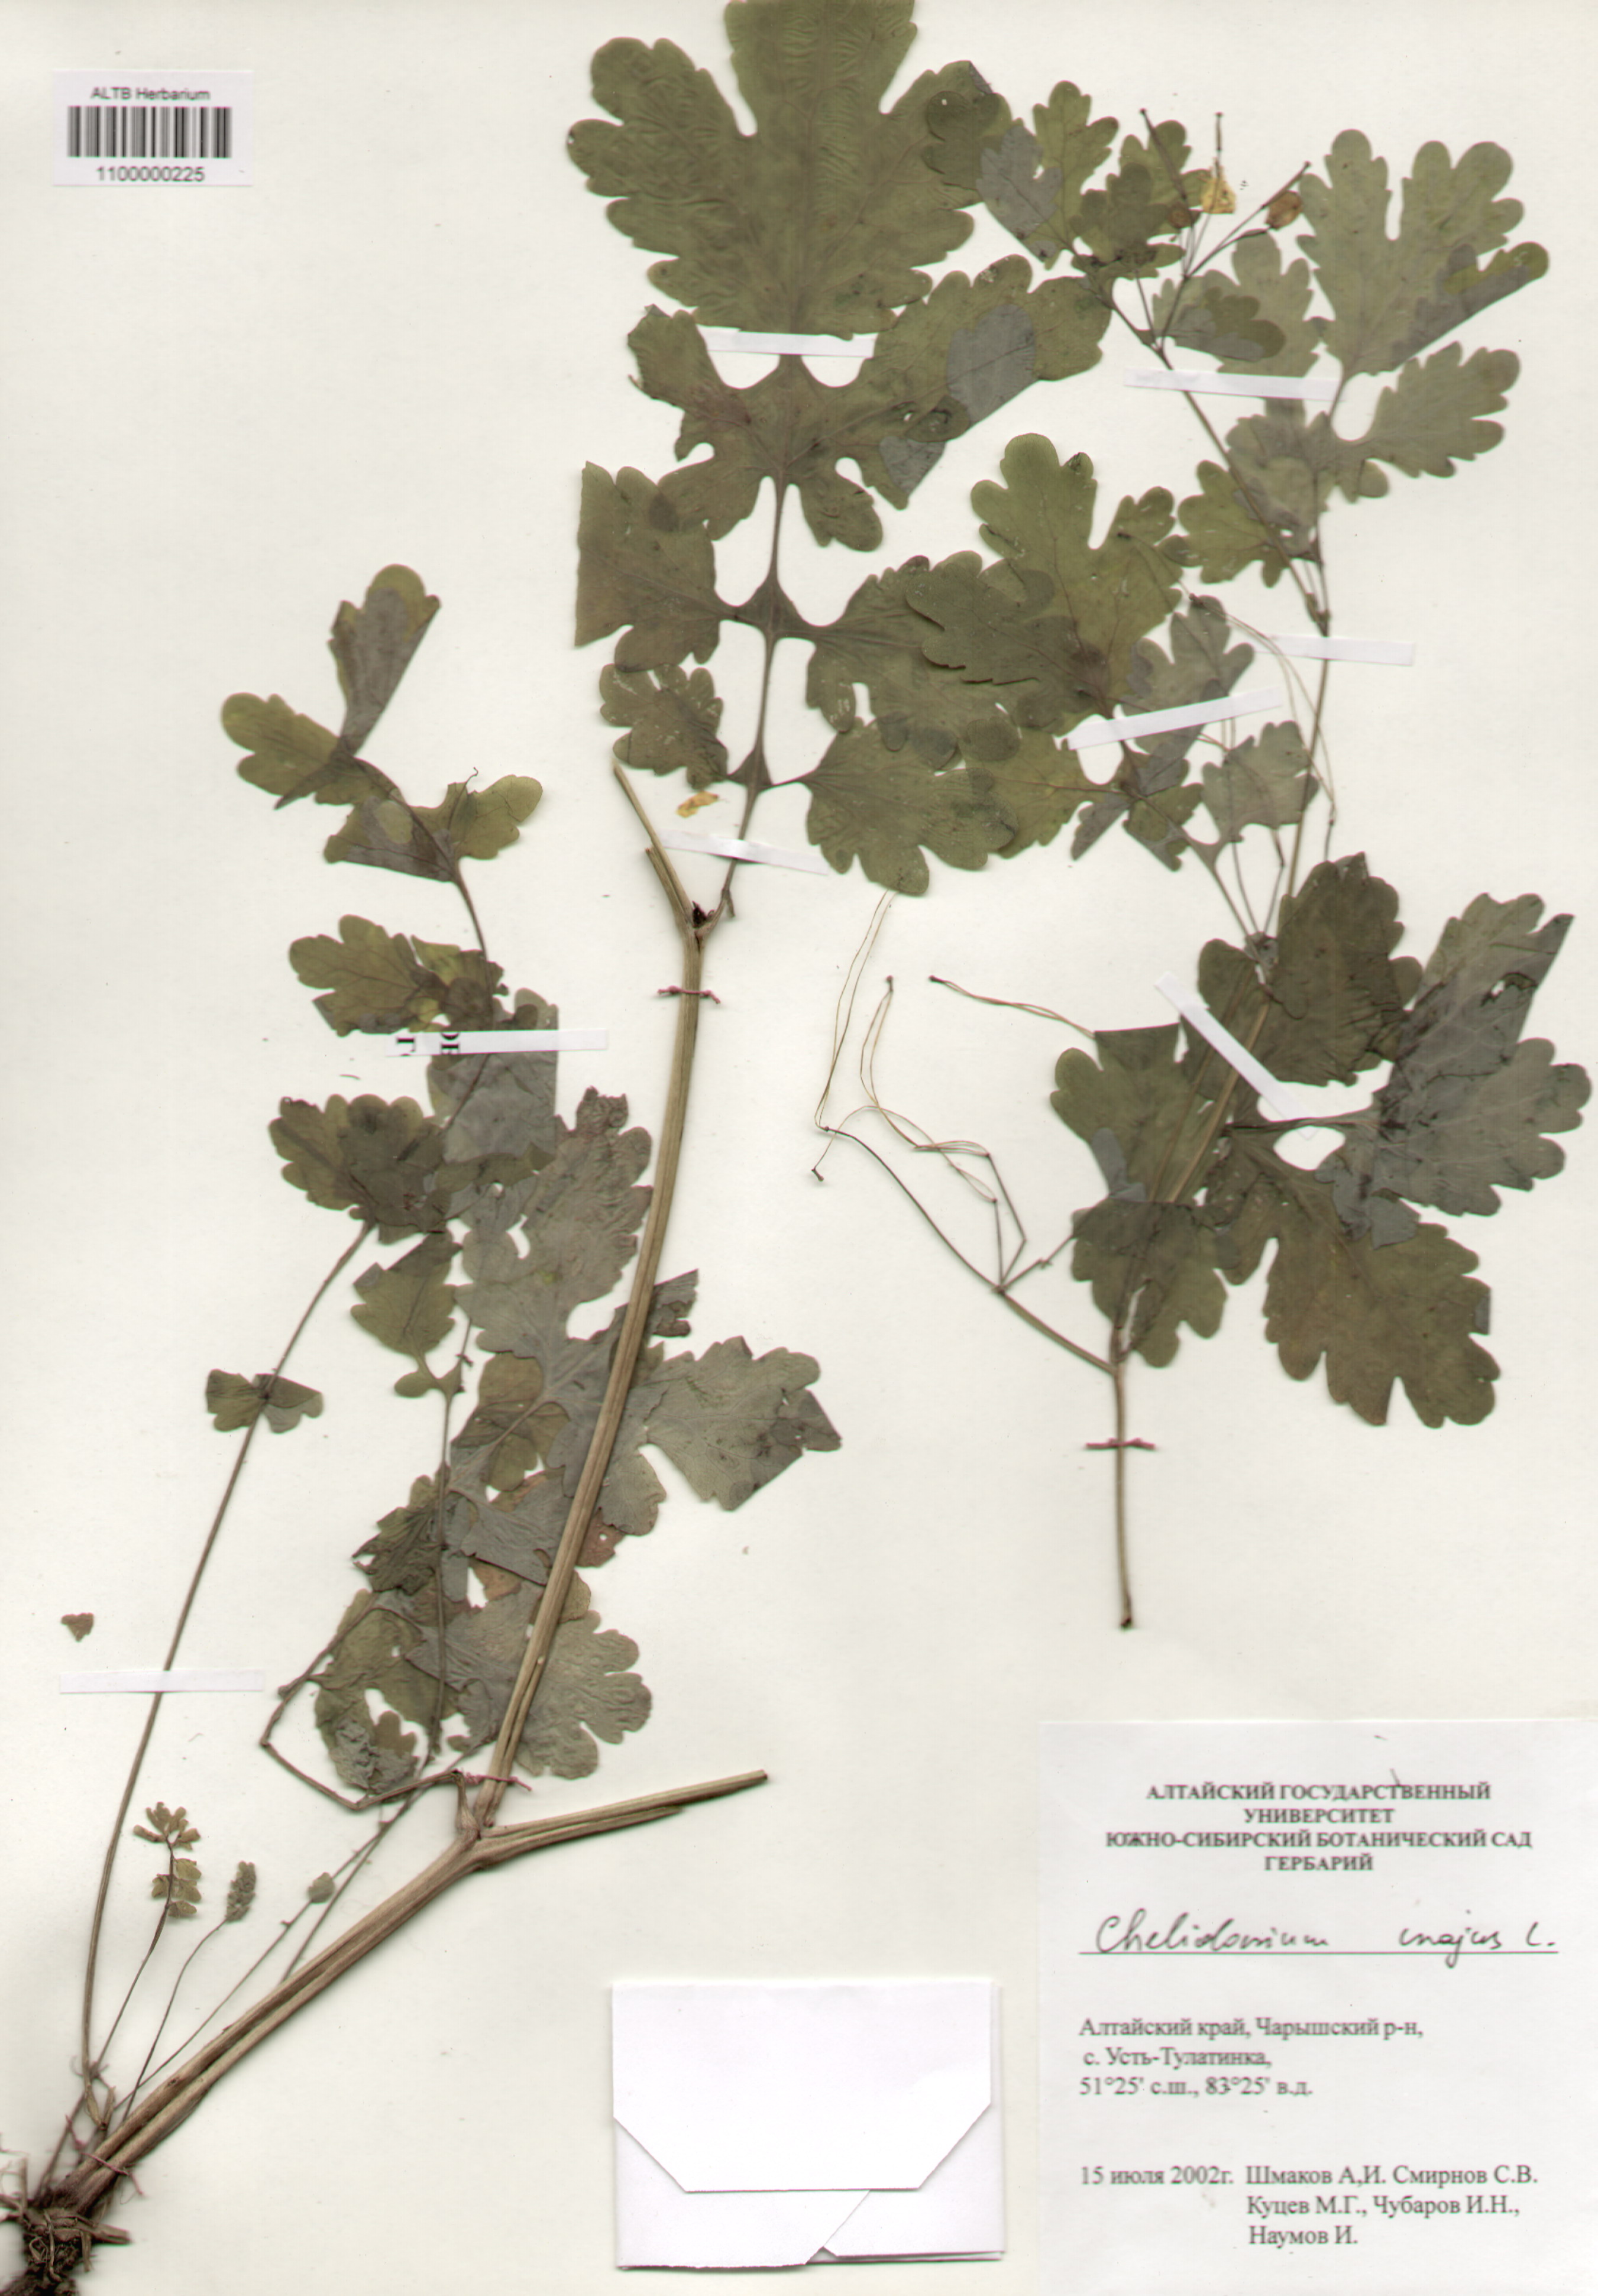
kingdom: Plantae
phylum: Tracheophyta
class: Magnoliopsida
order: Ranunculales
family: Papaveraceae
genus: Chelidonium
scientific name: Chelidonium majus
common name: Greater celandine
